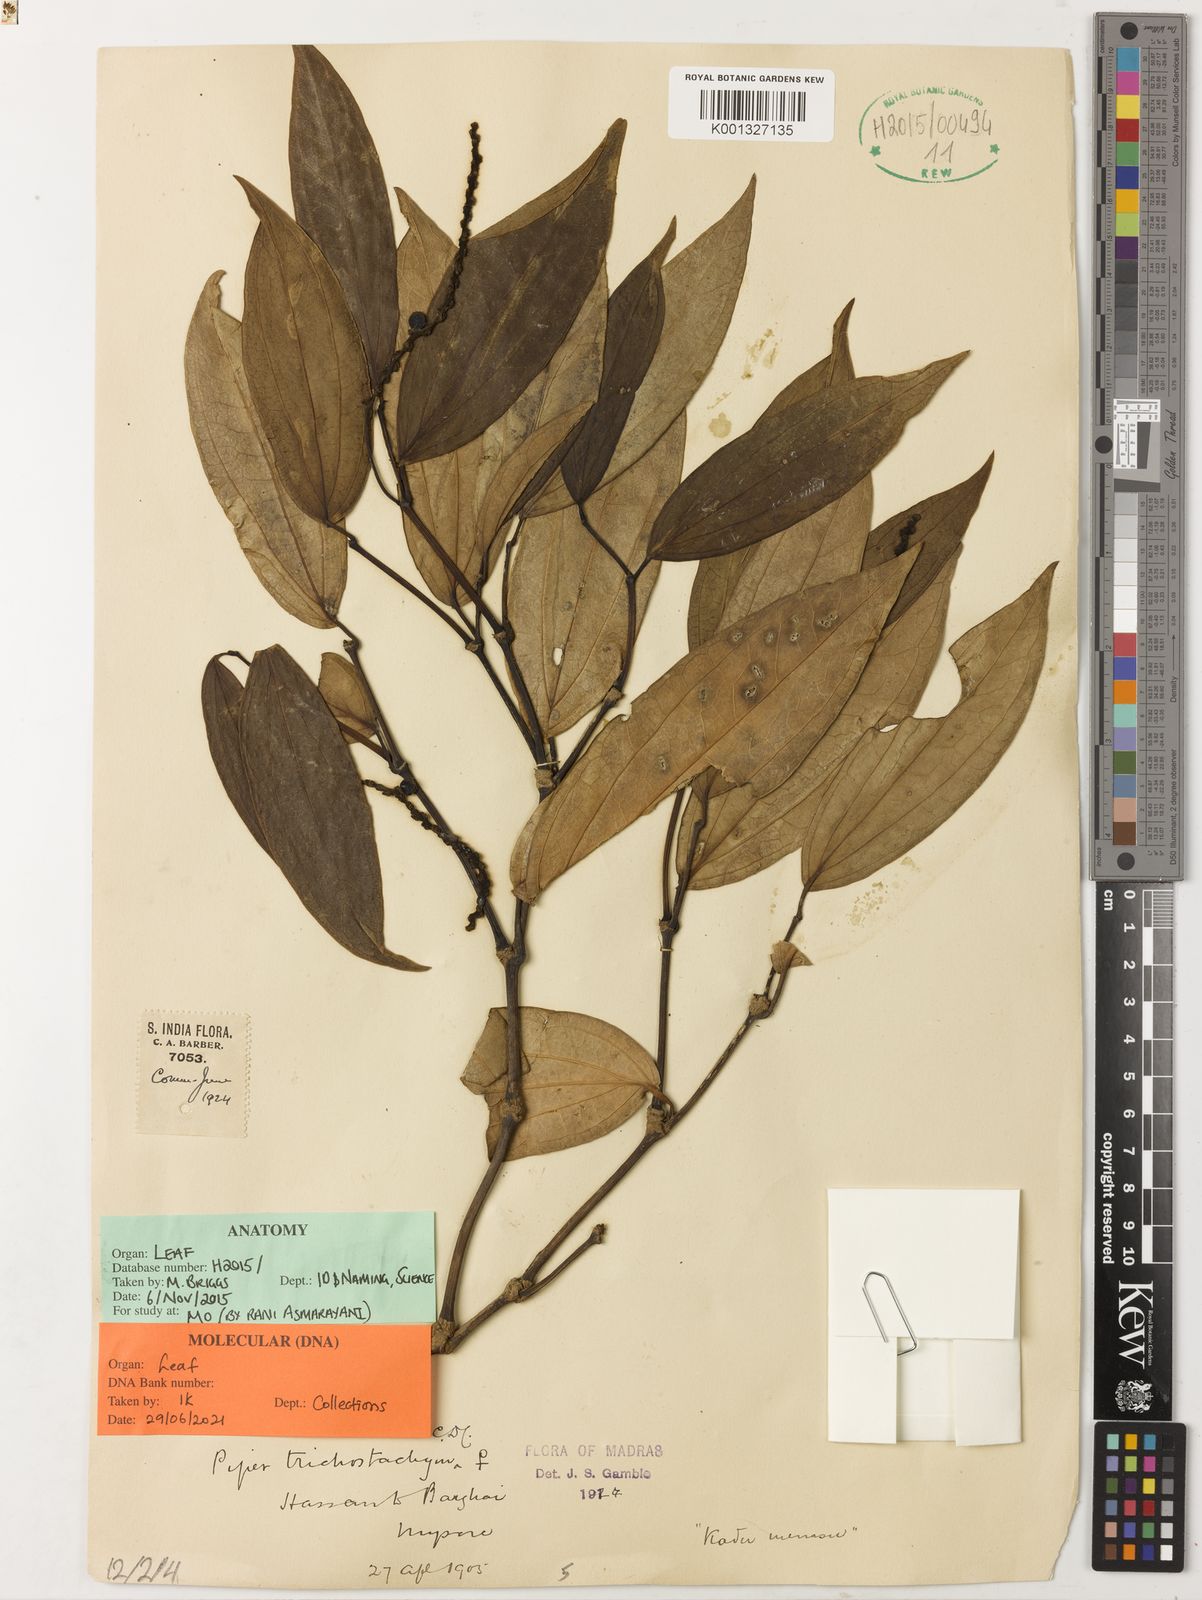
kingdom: Plantae
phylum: Tracheophyta
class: Magnoliopsida
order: Piperales
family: Piperaceae
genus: Piper
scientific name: Piper trichostachyon
